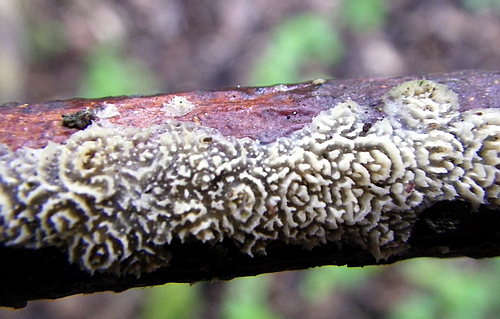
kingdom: Fungi
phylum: Basidiomycota
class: Agaricomycetes
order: Polyporales
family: Steccherinaceae
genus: Steccherinum
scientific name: Steccherinum oreophilum
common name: kvist-skønpig
